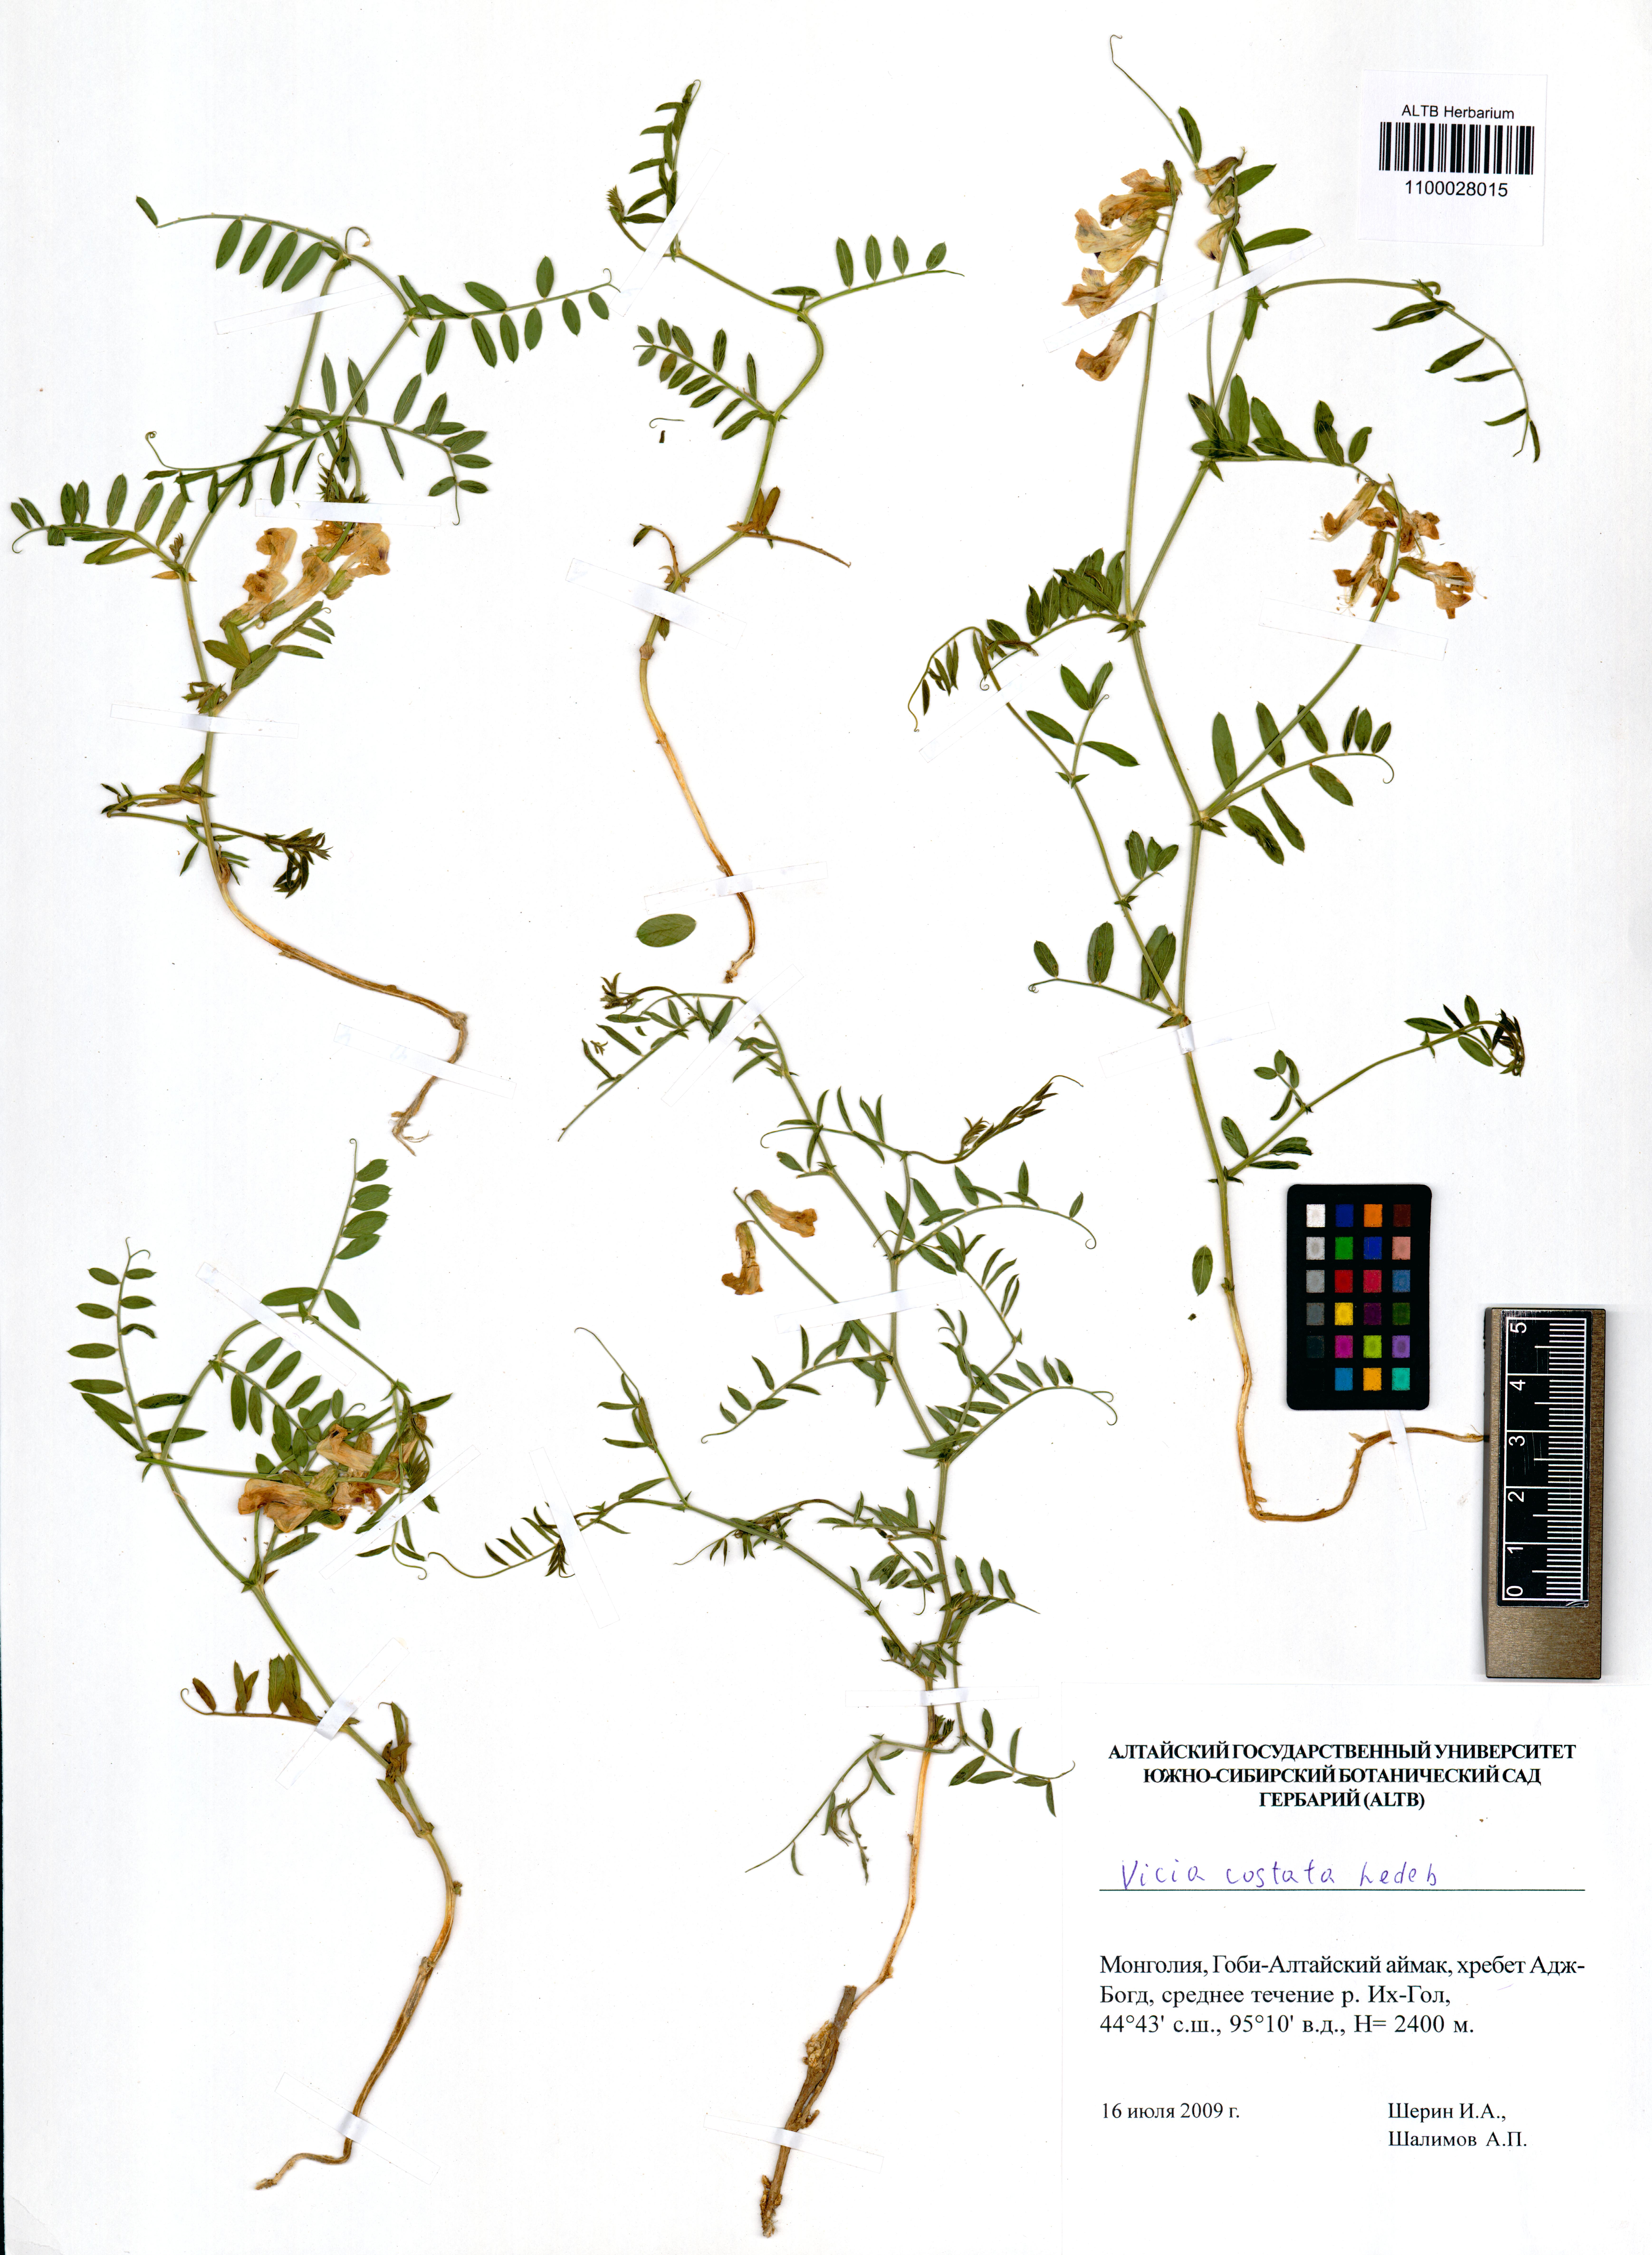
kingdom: Plantae
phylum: Tracheophyta
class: Magnoliopsida
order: Fabales
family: Fabaceae
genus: Vicia
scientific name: Vicia costata
